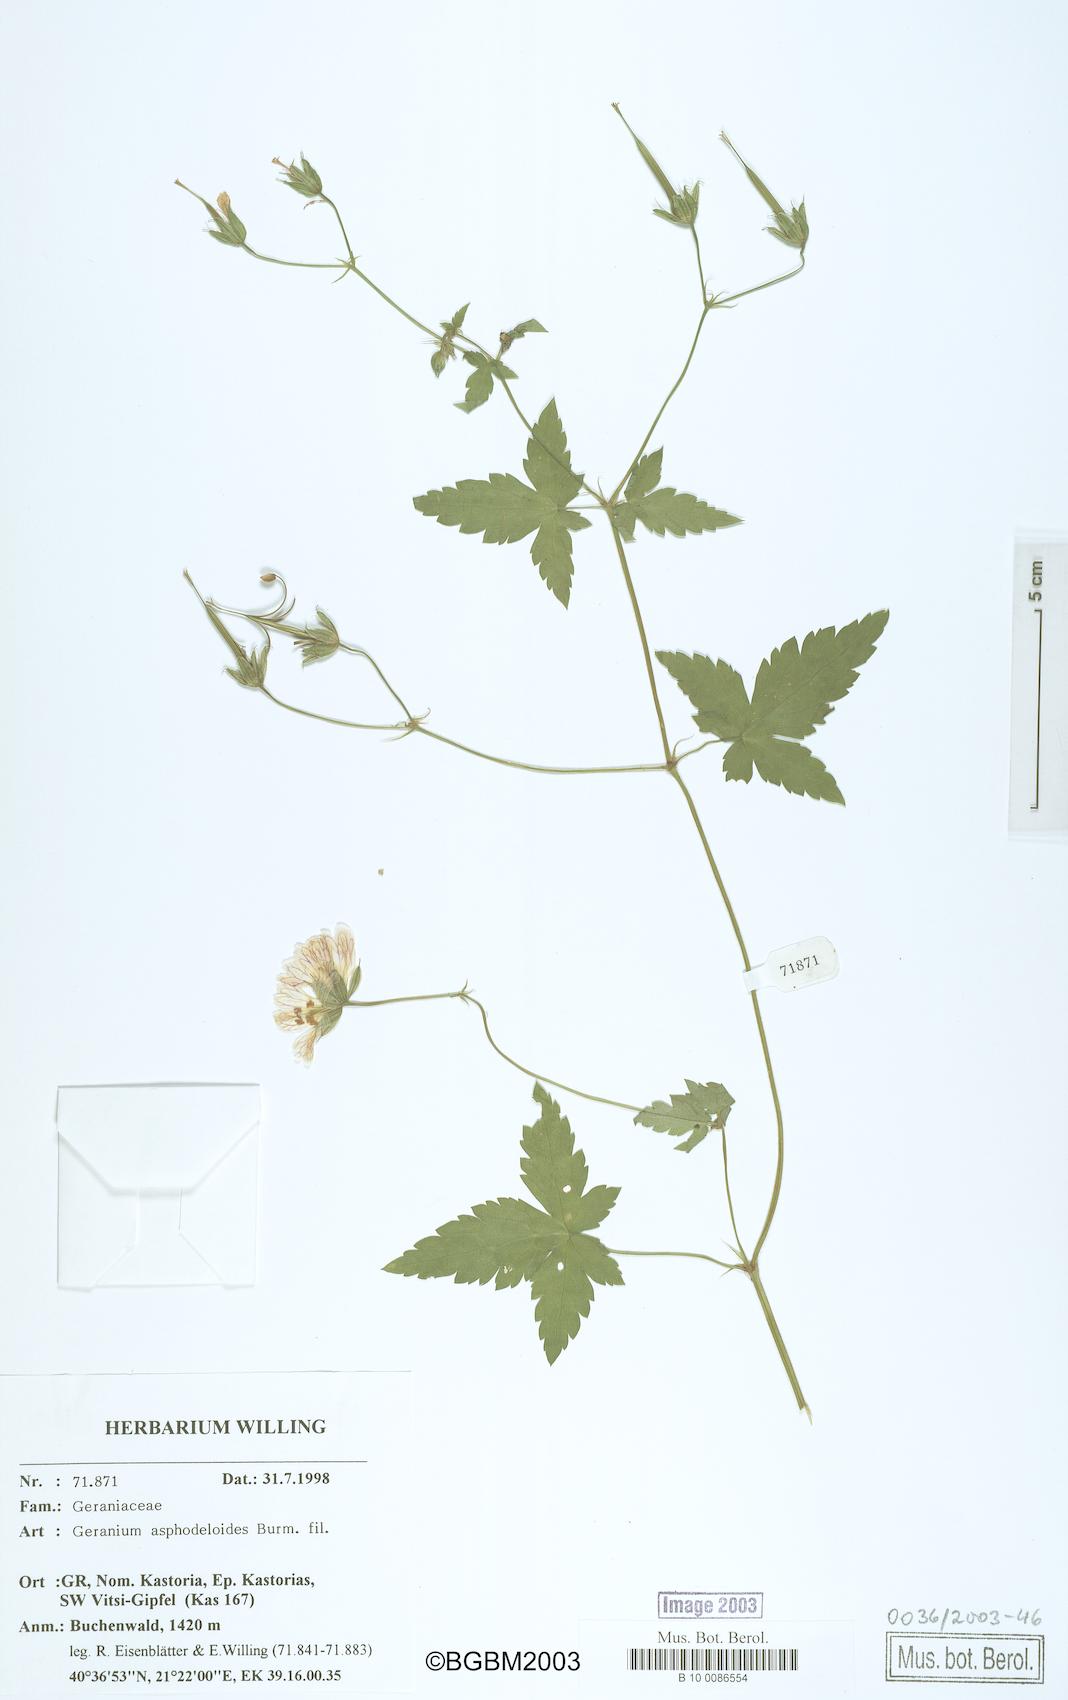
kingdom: Plantae
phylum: Tracheophyta
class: Magnoliopsida
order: Geraniales
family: Geraniaceae
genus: Geranium
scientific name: Geranium asphodeloides
